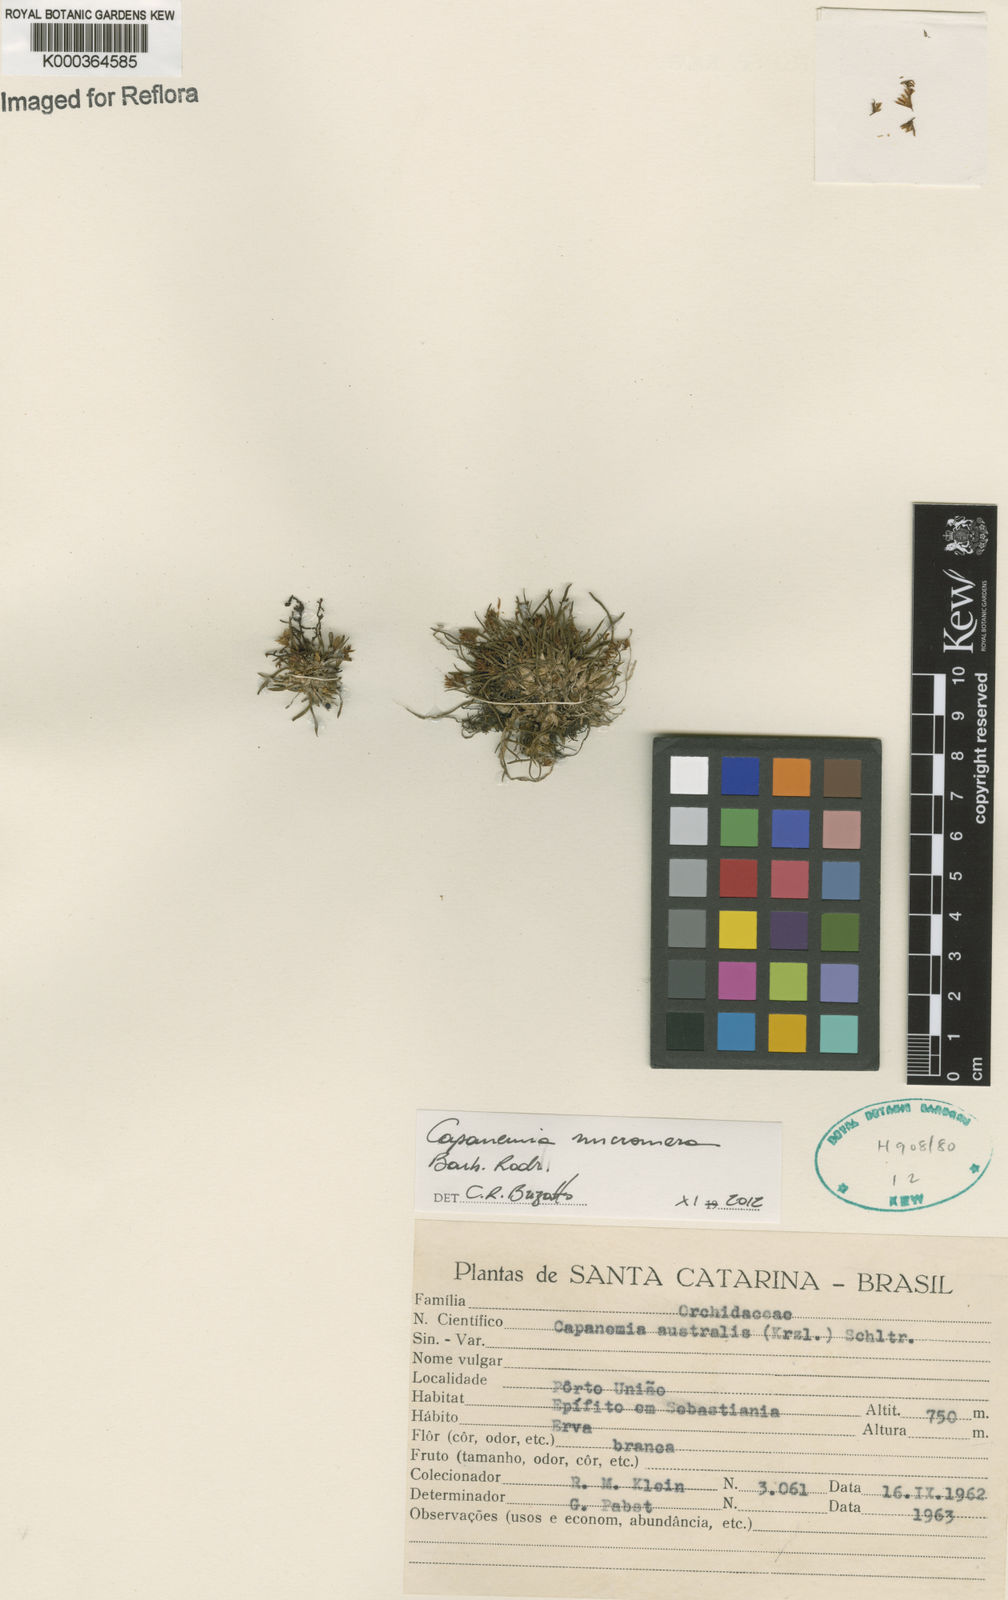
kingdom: Plantae
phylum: Tracheophyta
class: Liliopsida
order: Asparagales
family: Orchidaceae
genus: Capanemia
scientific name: Capanemia micromera
